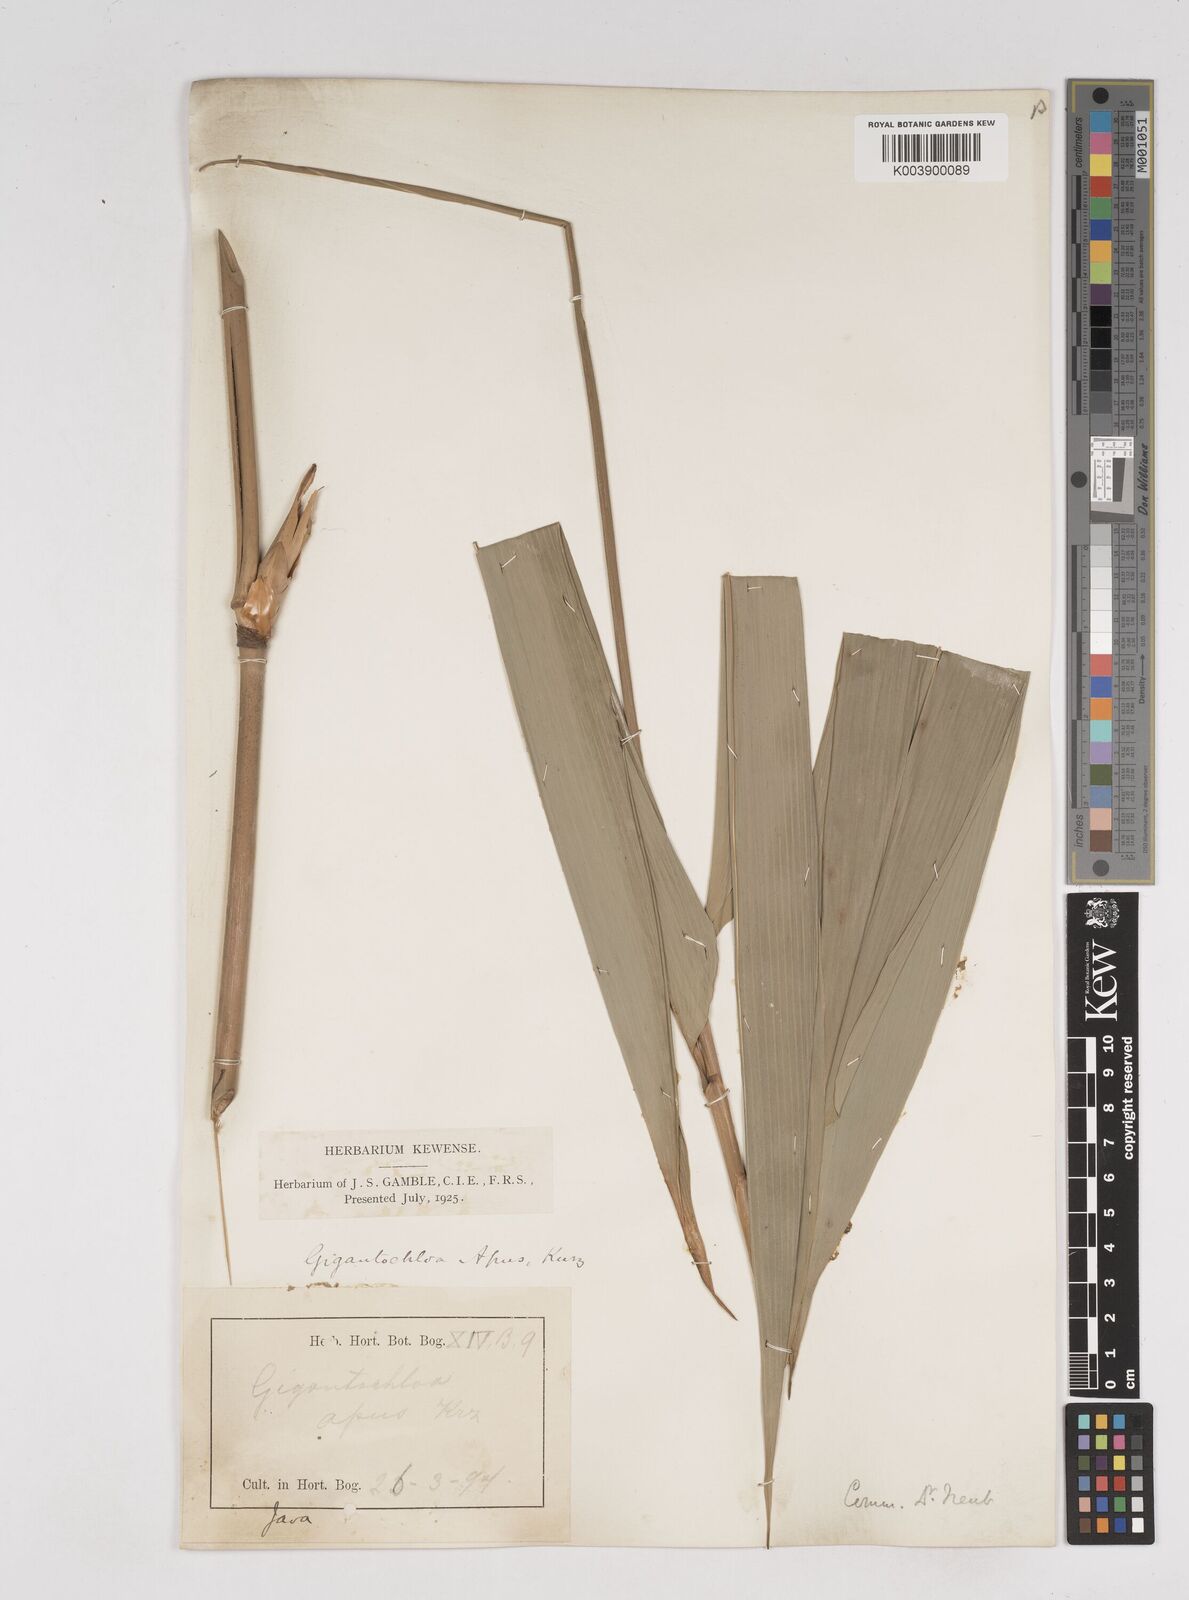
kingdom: Plantae
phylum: Tracheophyta
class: Liliopsida
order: Poales
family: Poaceae
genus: Gigantochloa
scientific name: Gigantochloa apus
